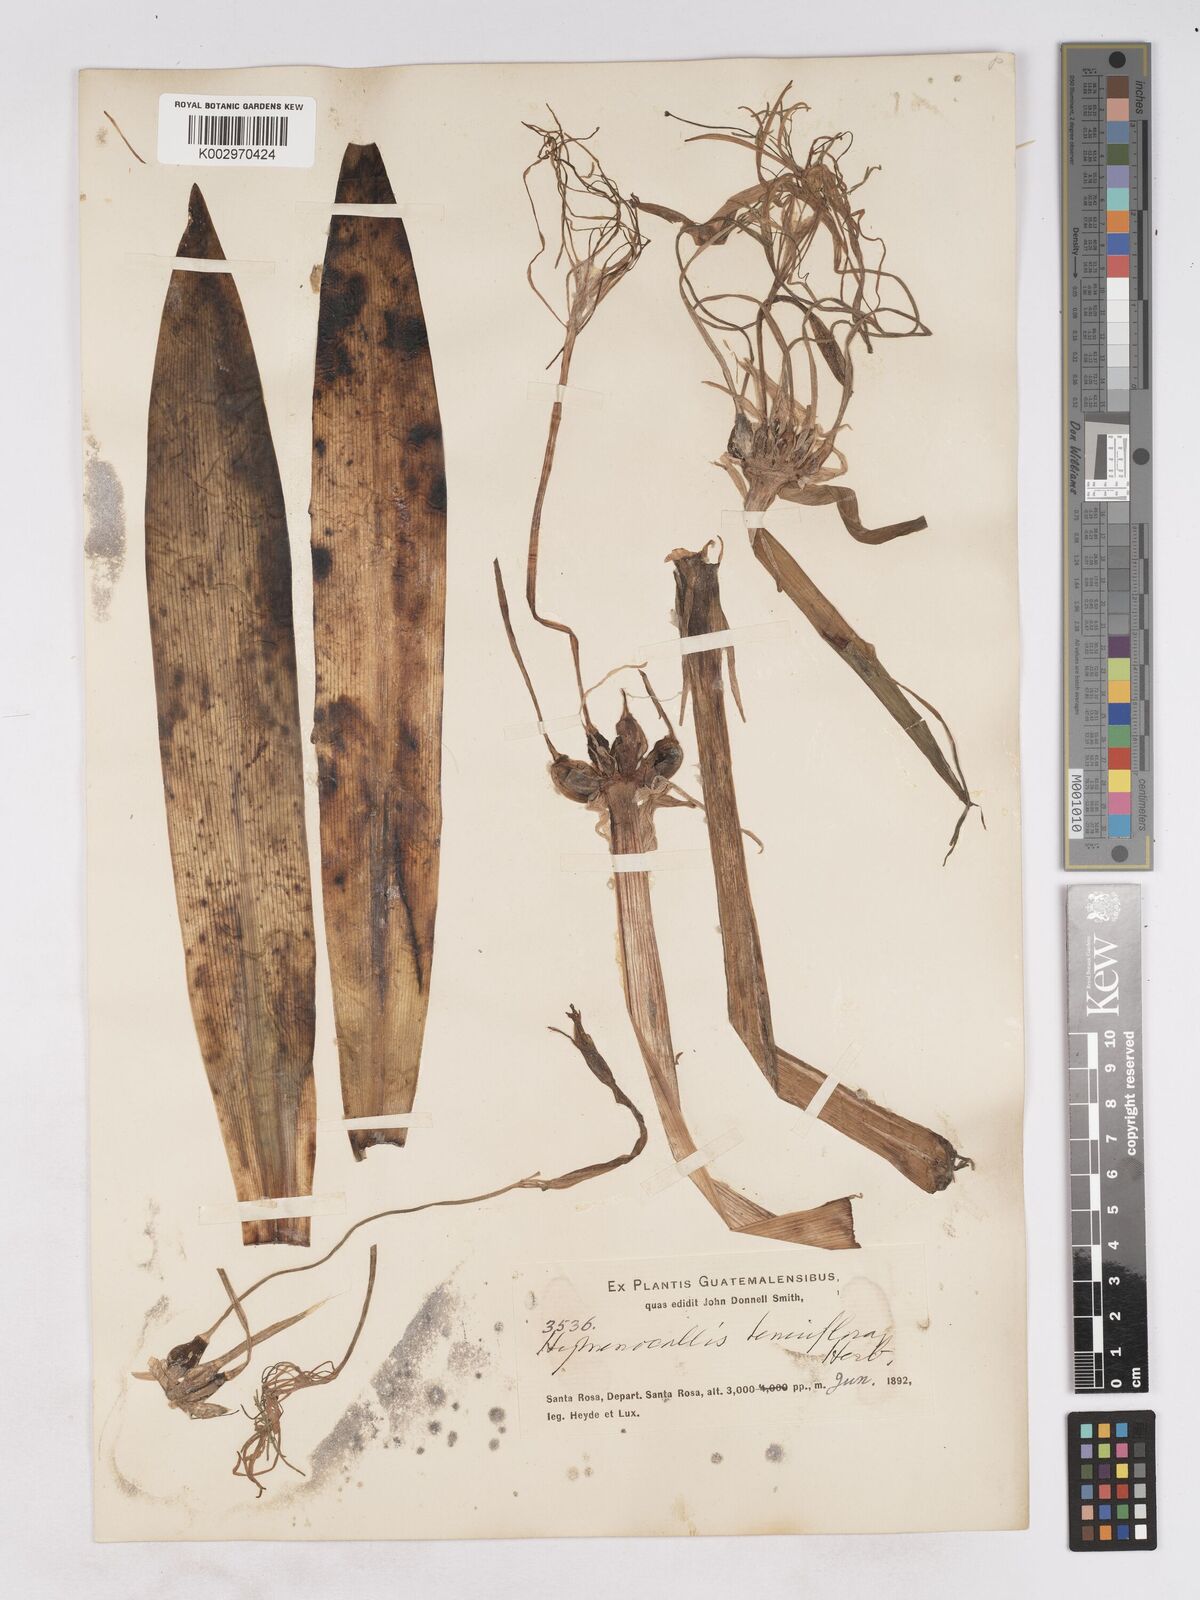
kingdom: Plantae
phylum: Tracheophyta
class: Liliopsida
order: Asparagales
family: Amaryllidaceae
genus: Hymenocallis
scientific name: Hymenocallis littoralis
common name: Beach spiderlily
